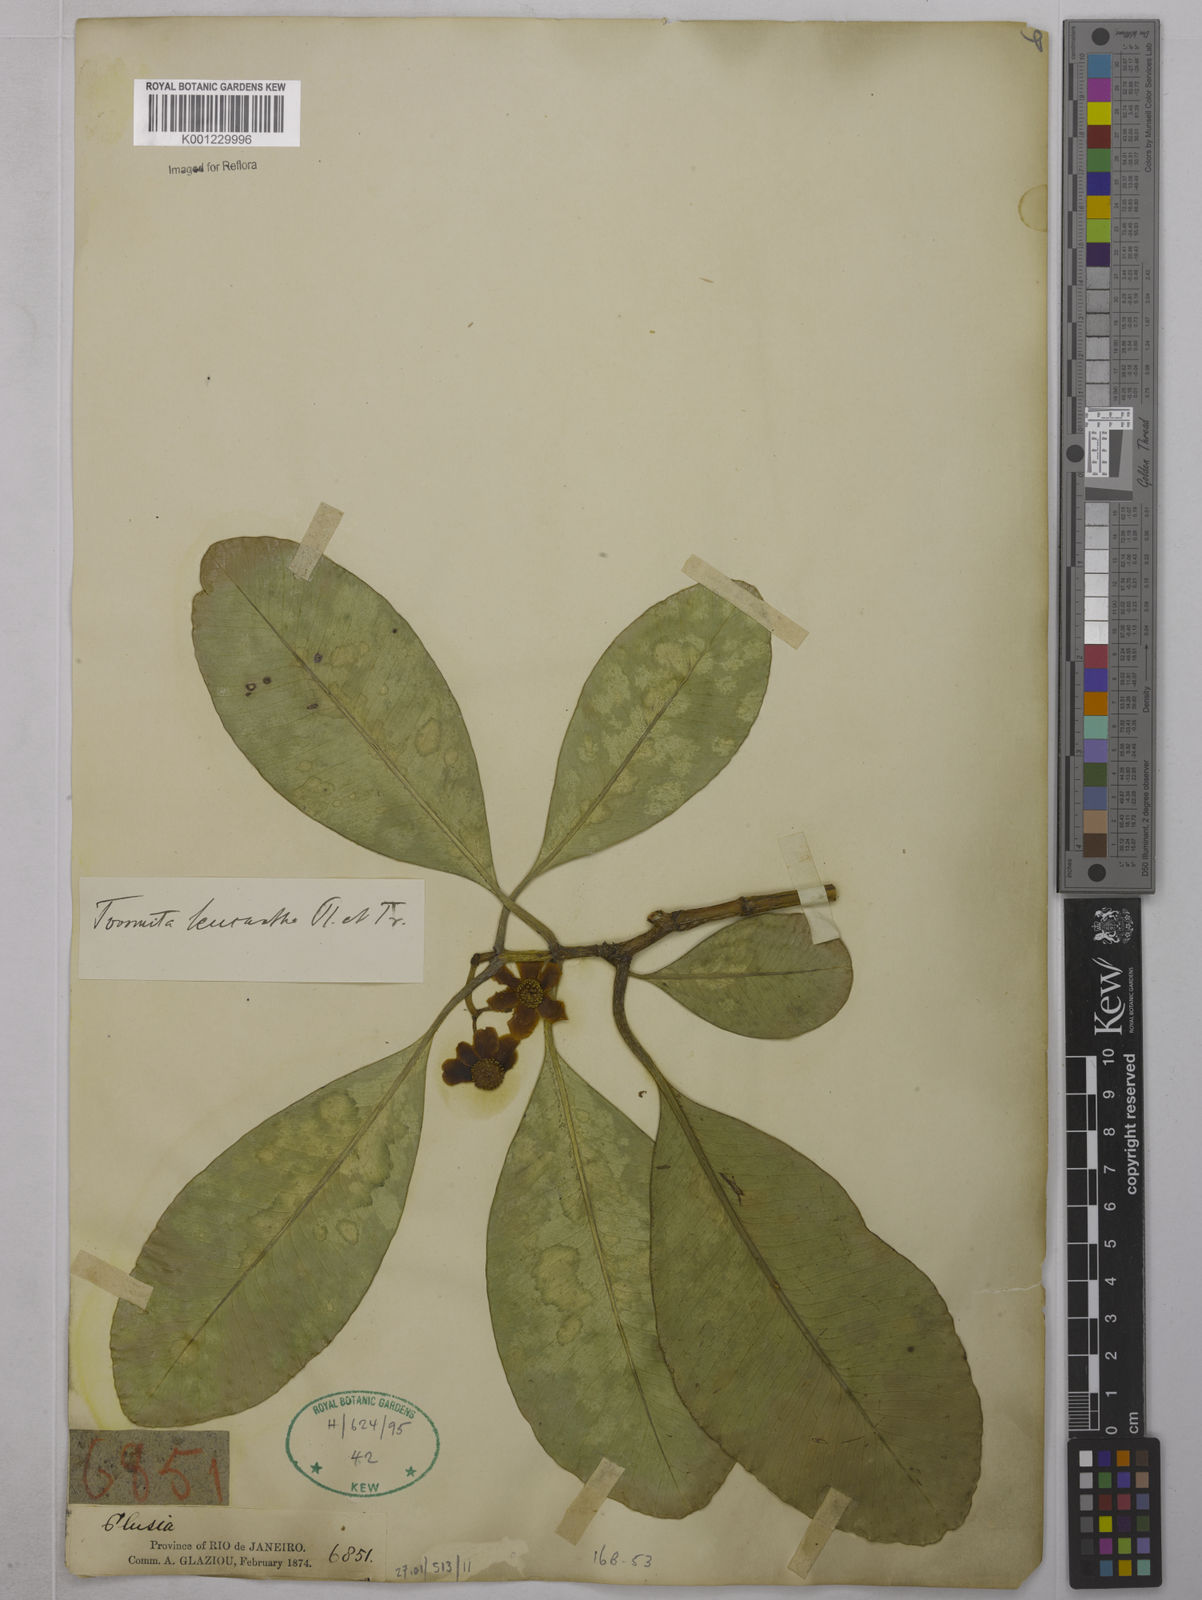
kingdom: Plantae
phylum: Tracheophyta
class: Magnoliopsida
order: Malpighiales
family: Clusiaceae
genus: Tovomita
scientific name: Tovomita leucantha
